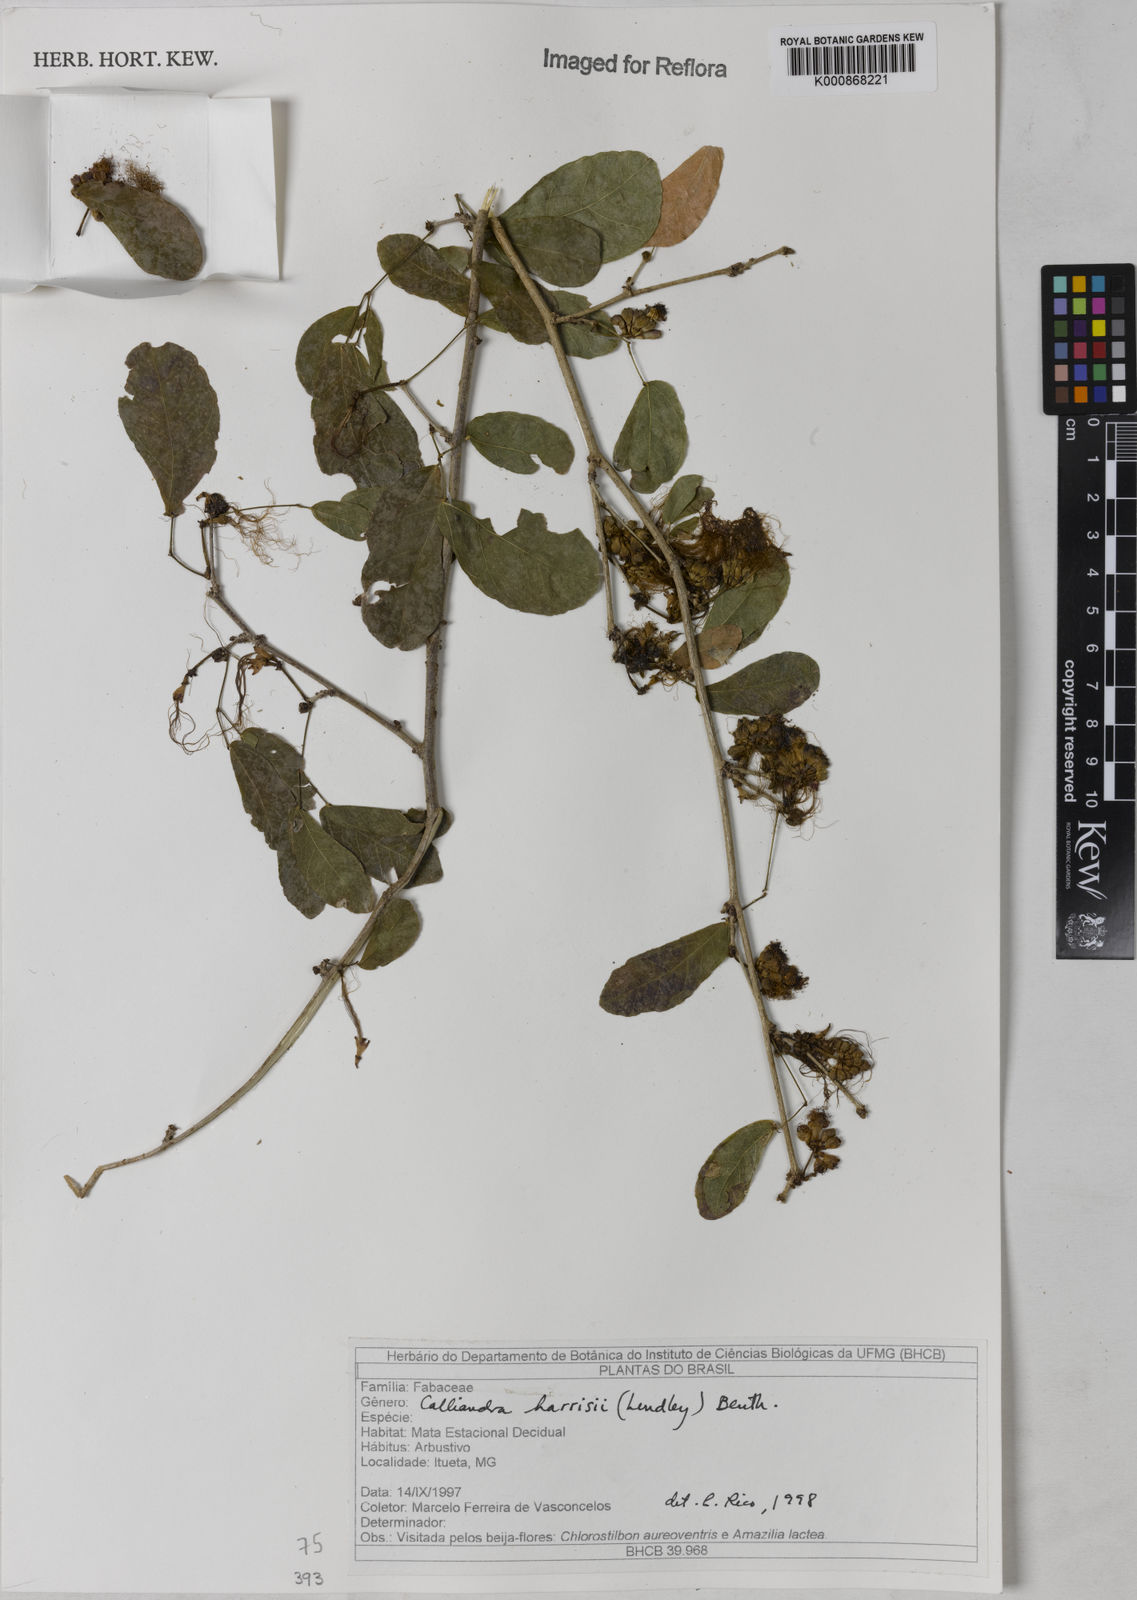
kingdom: Plantae
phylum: Tracheophyta
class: Magnoliopsida
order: Fabales
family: Fabaceae
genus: Calliandra
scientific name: Calliandra harrisii
